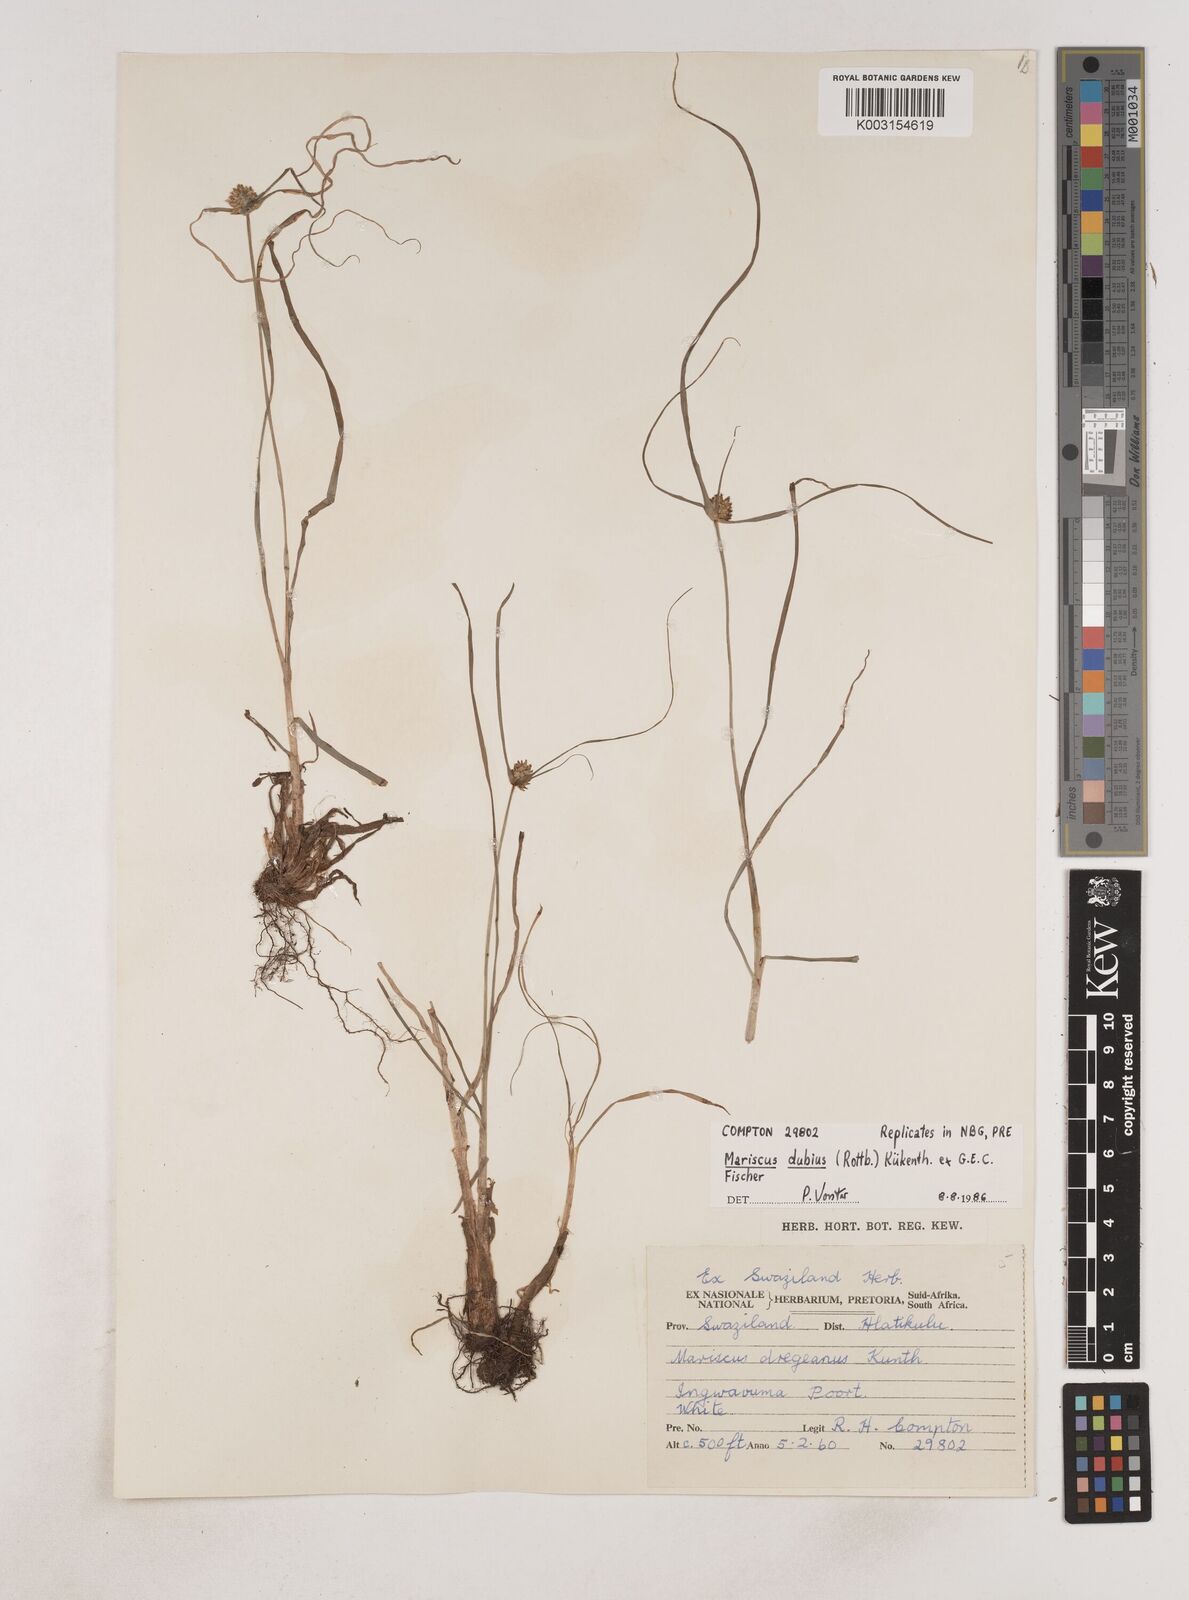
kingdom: Plantae
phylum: Tracheophyta
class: Liliopsida
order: Poales
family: Cyperaceae
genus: Cyperus
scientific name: Cyperus dubius
